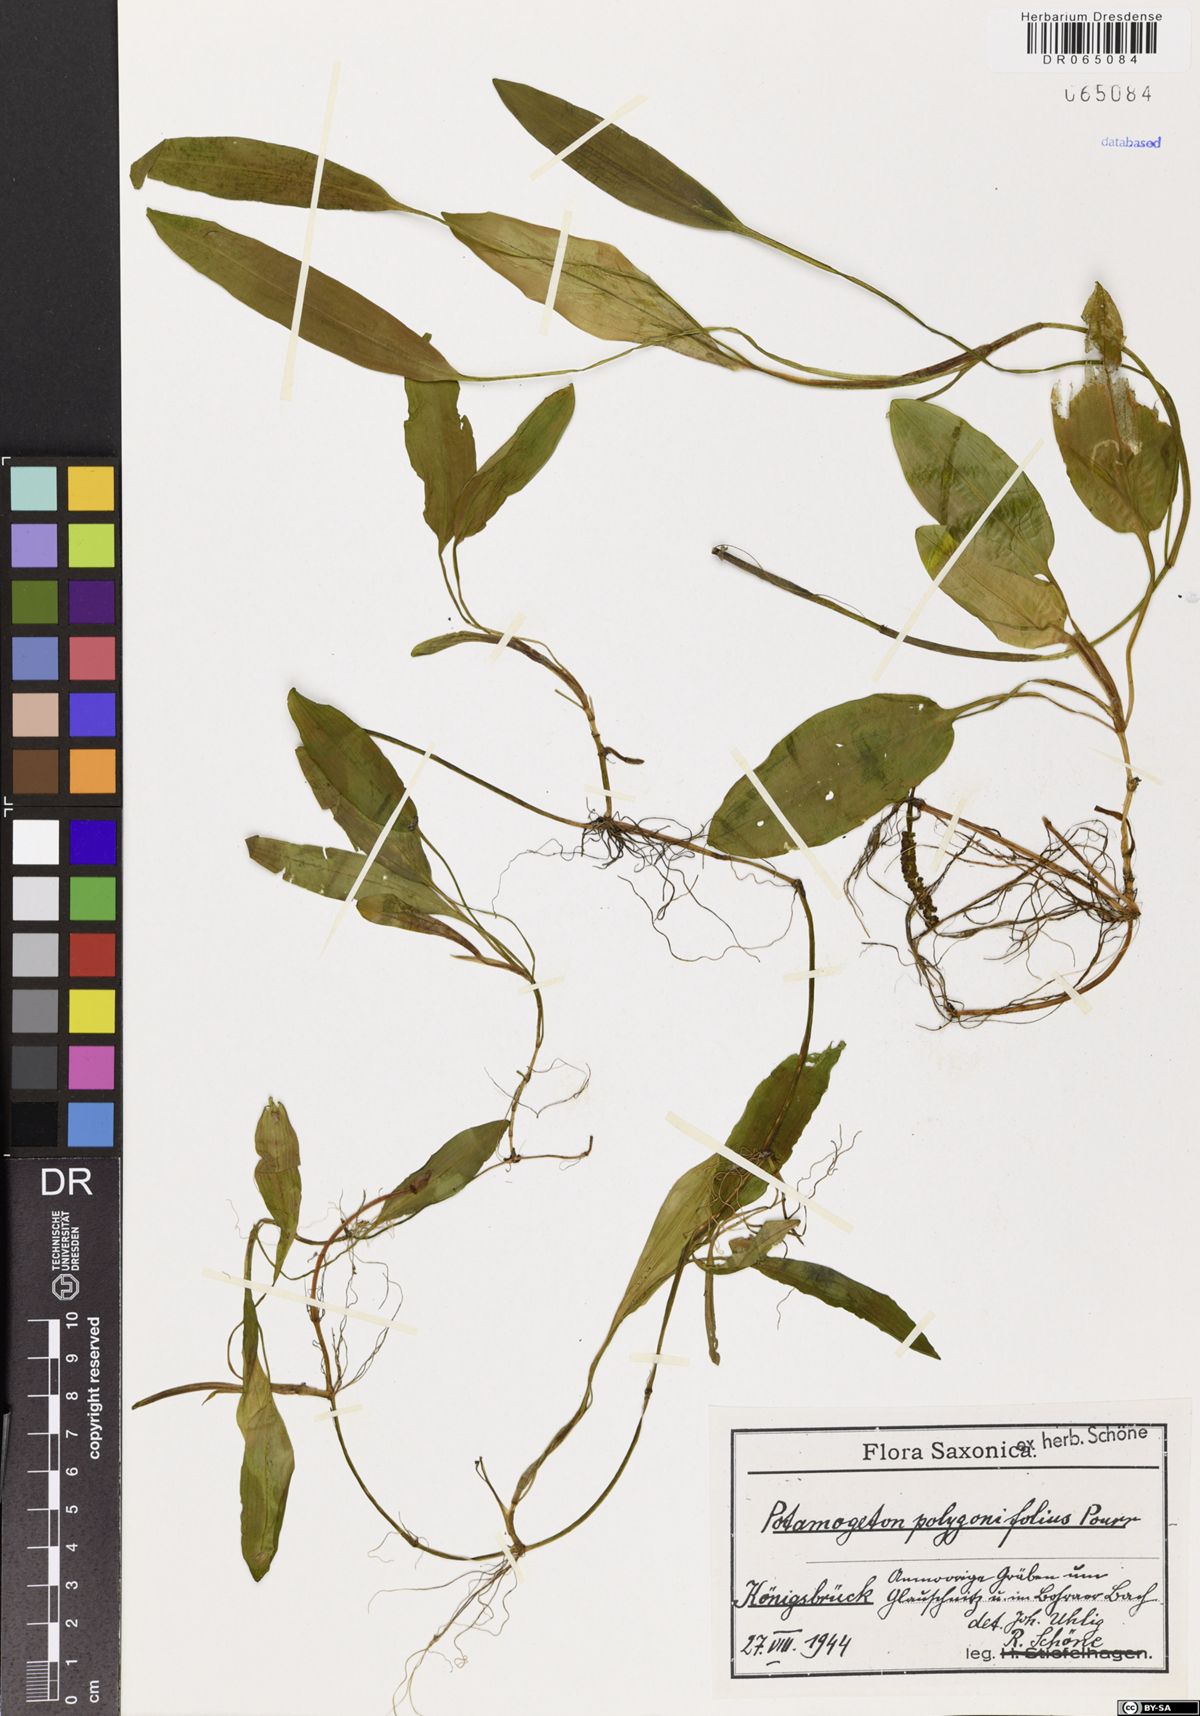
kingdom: Plantae
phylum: Tracheophyta
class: Liliopsida
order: Alismatales
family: Potamogetonaceae
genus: Potamogeton
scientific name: Potamogeton polygonifolius
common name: Bog pondweed
